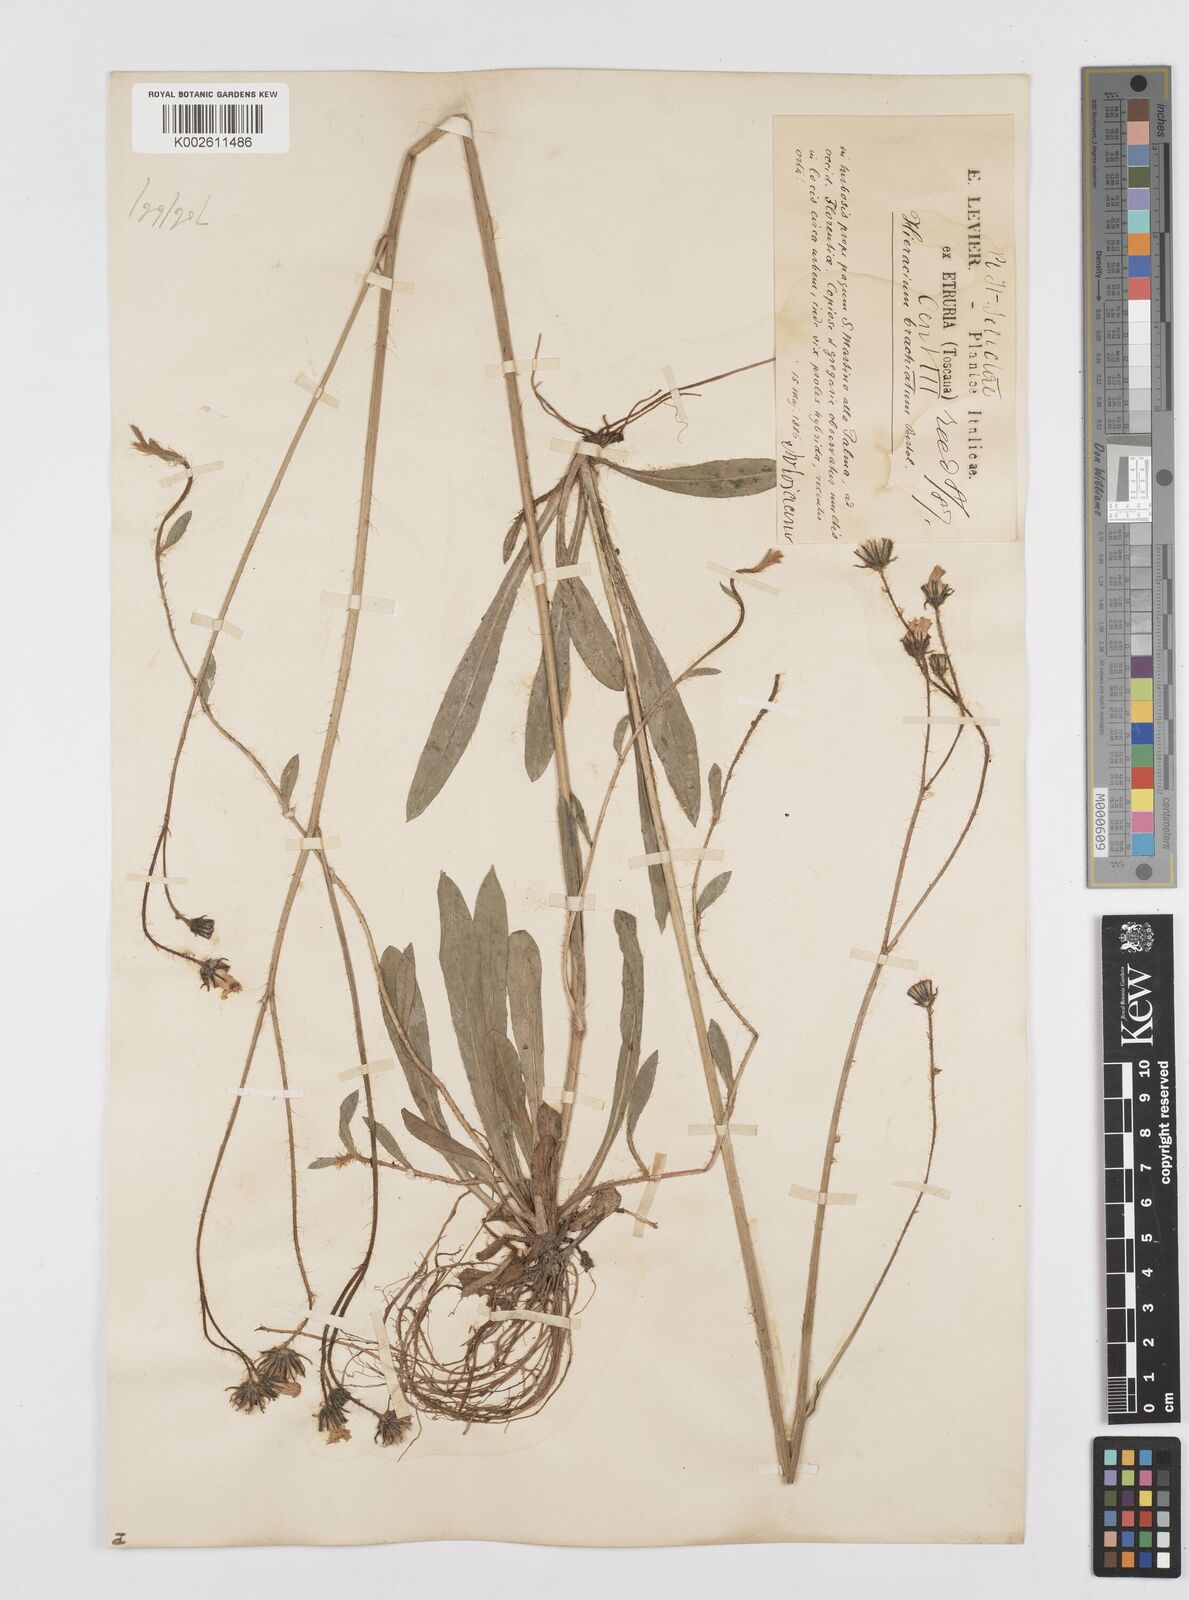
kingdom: Plantae
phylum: Tracheophyta
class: Magnoliopsida
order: Asterales
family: Asteraceae
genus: Pilosella
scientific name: Pilosella acutifolia
